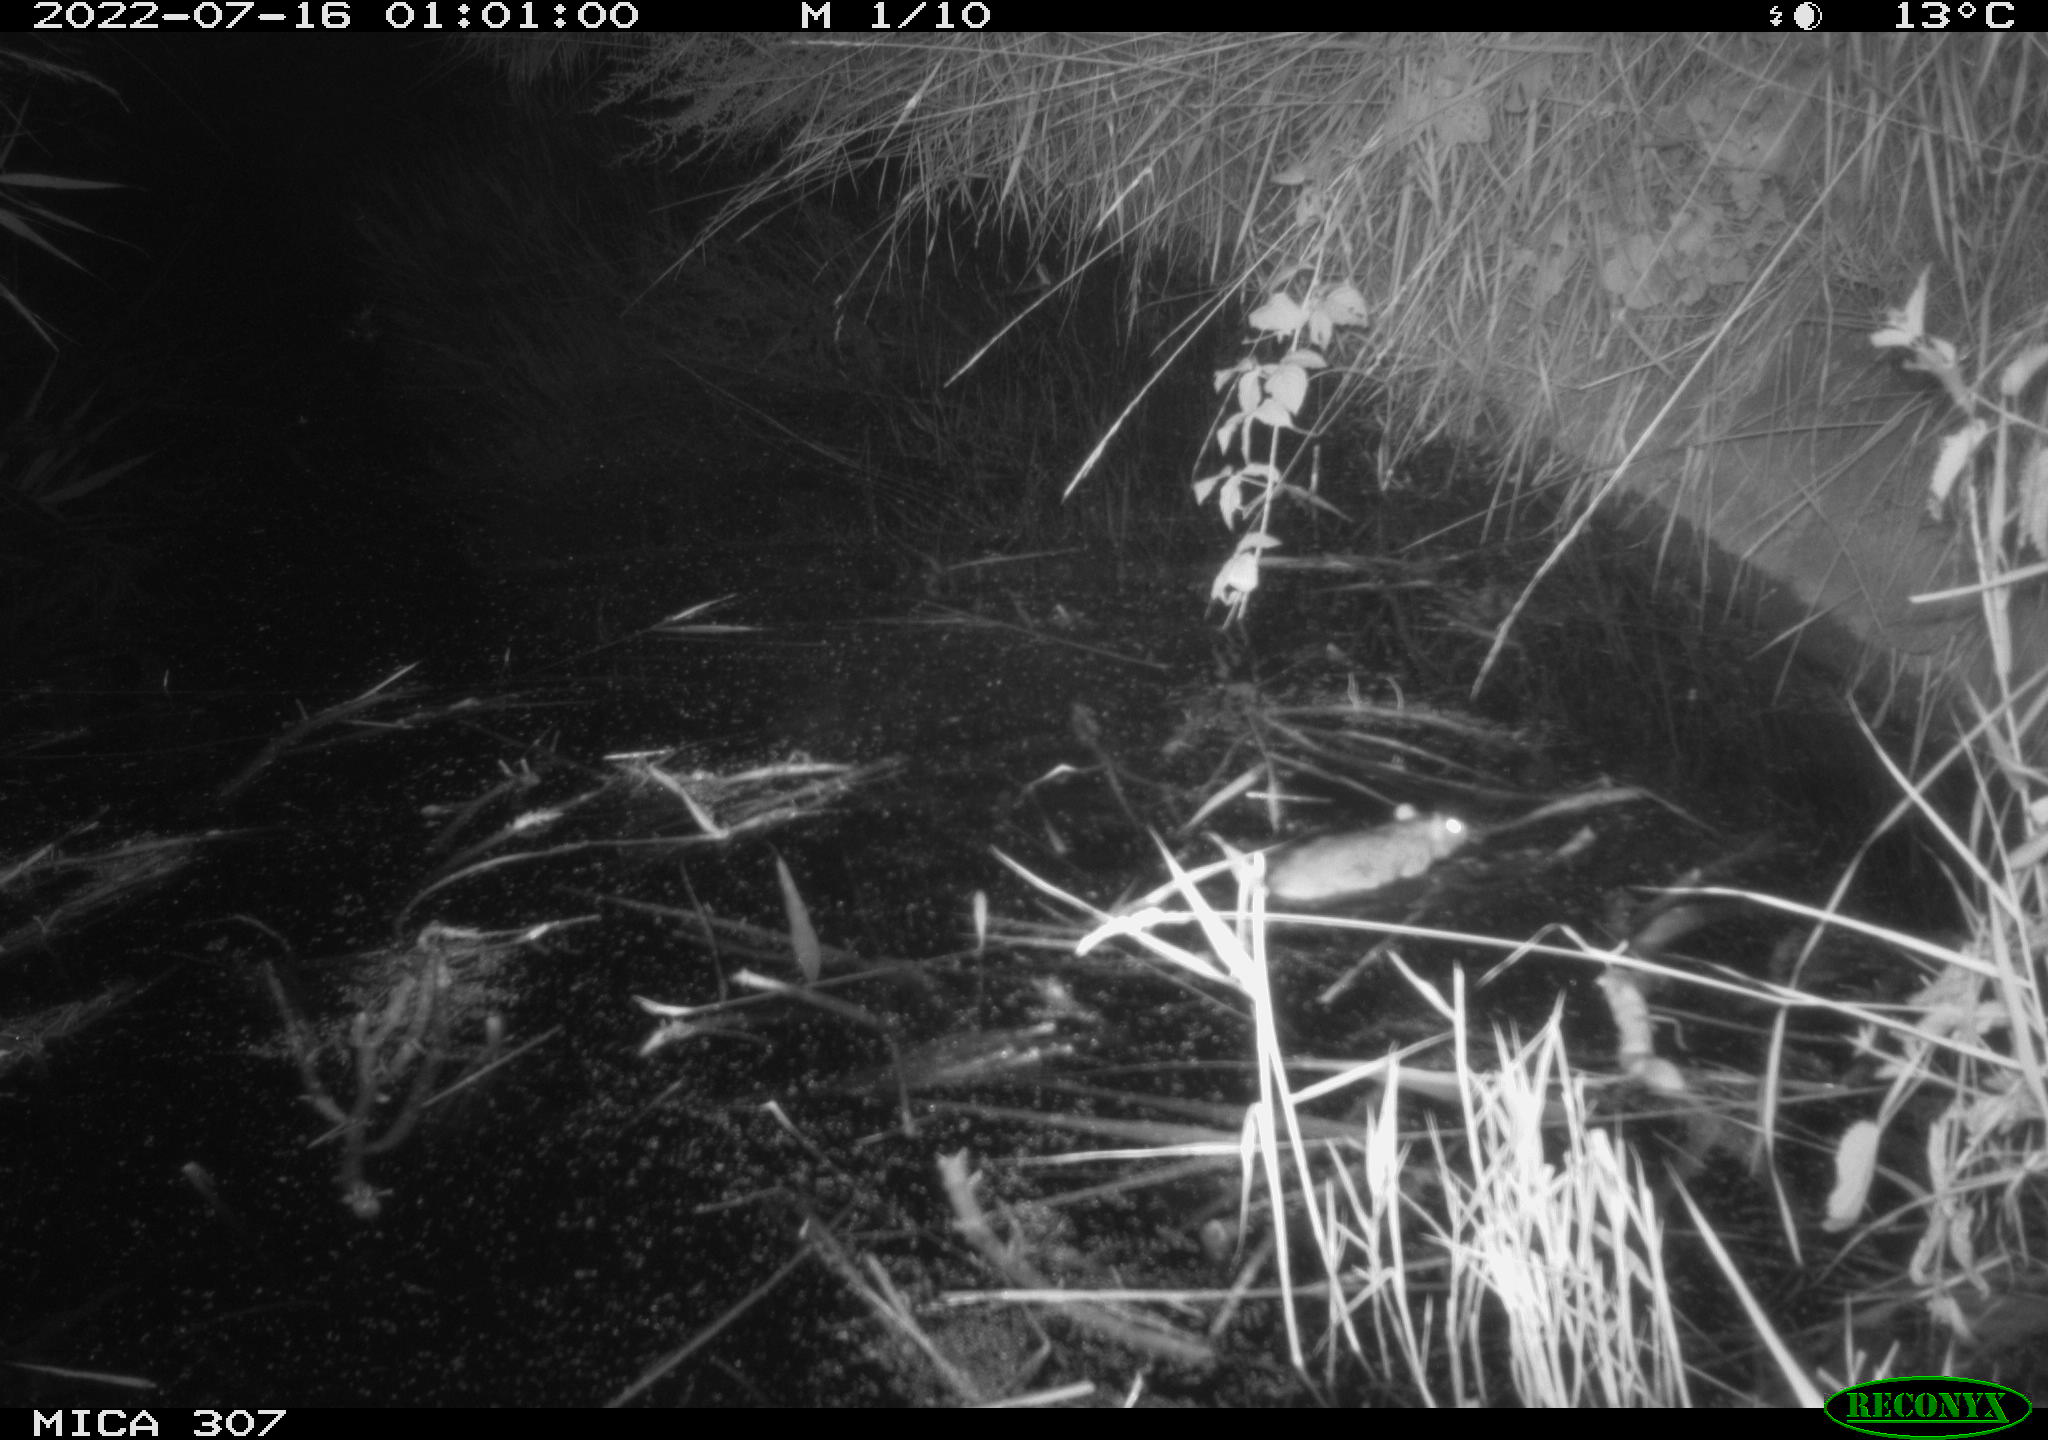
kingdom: Animalia
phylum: Chordata
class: Mammalia
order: Rodentia
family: Muridae
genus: Rattus
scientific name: Rattus norvegicus
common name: Brown rat
